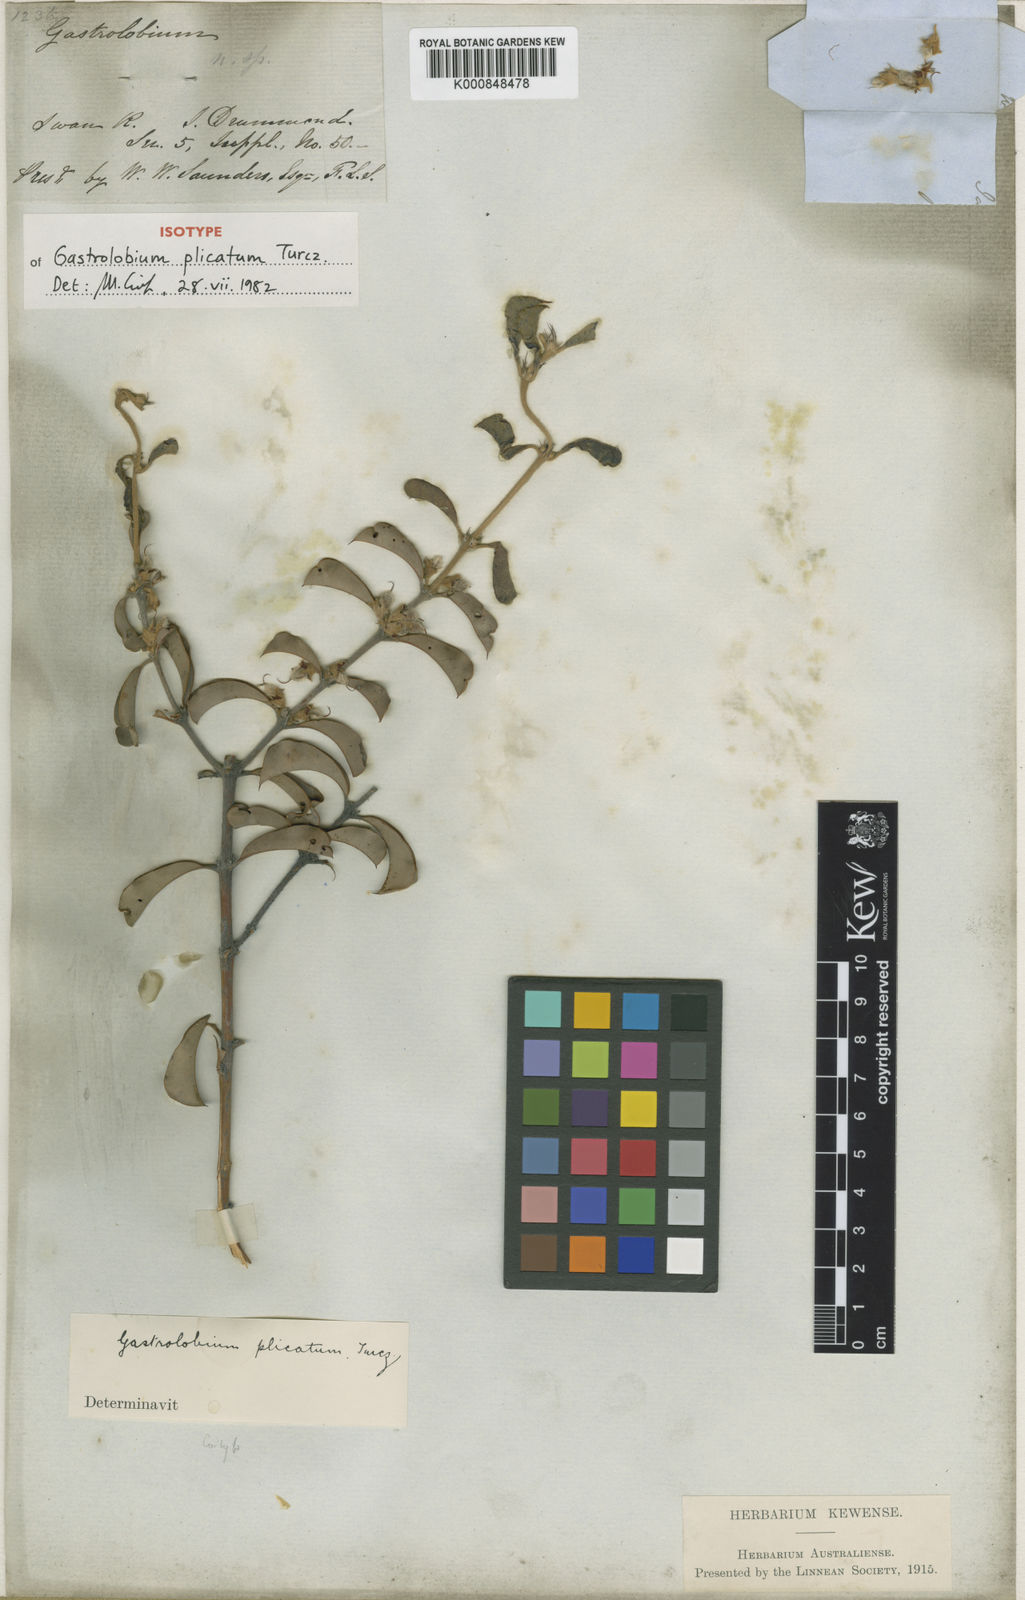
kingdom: Plantae
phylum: Tracheophyta
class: Magnoliopsida
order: Fabales
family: Fabaceae
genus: Gastrolobium
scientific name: Gastrolobium plicatum
